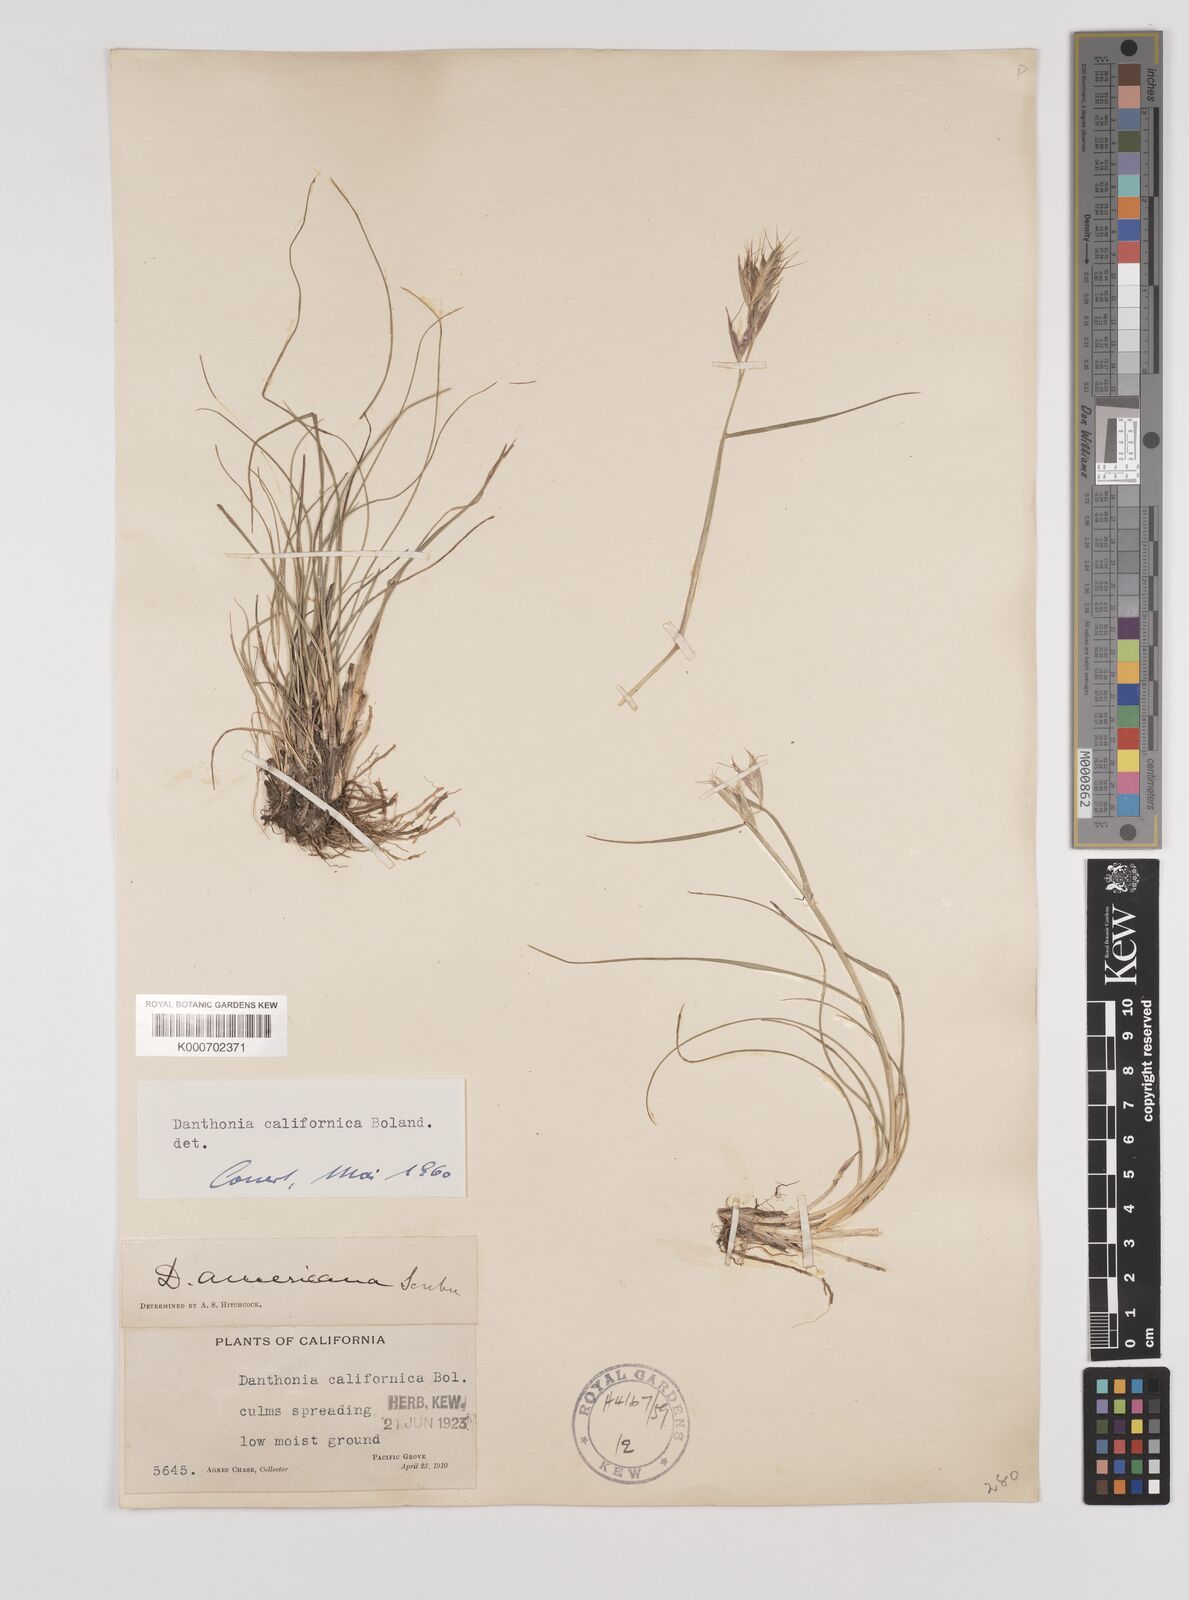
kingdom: Plantae
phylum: Tracheophyta
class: Liliopsida
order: Poales
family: Poaceae
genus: Danthonia
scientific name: Danthonia californica
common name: California oat grass
